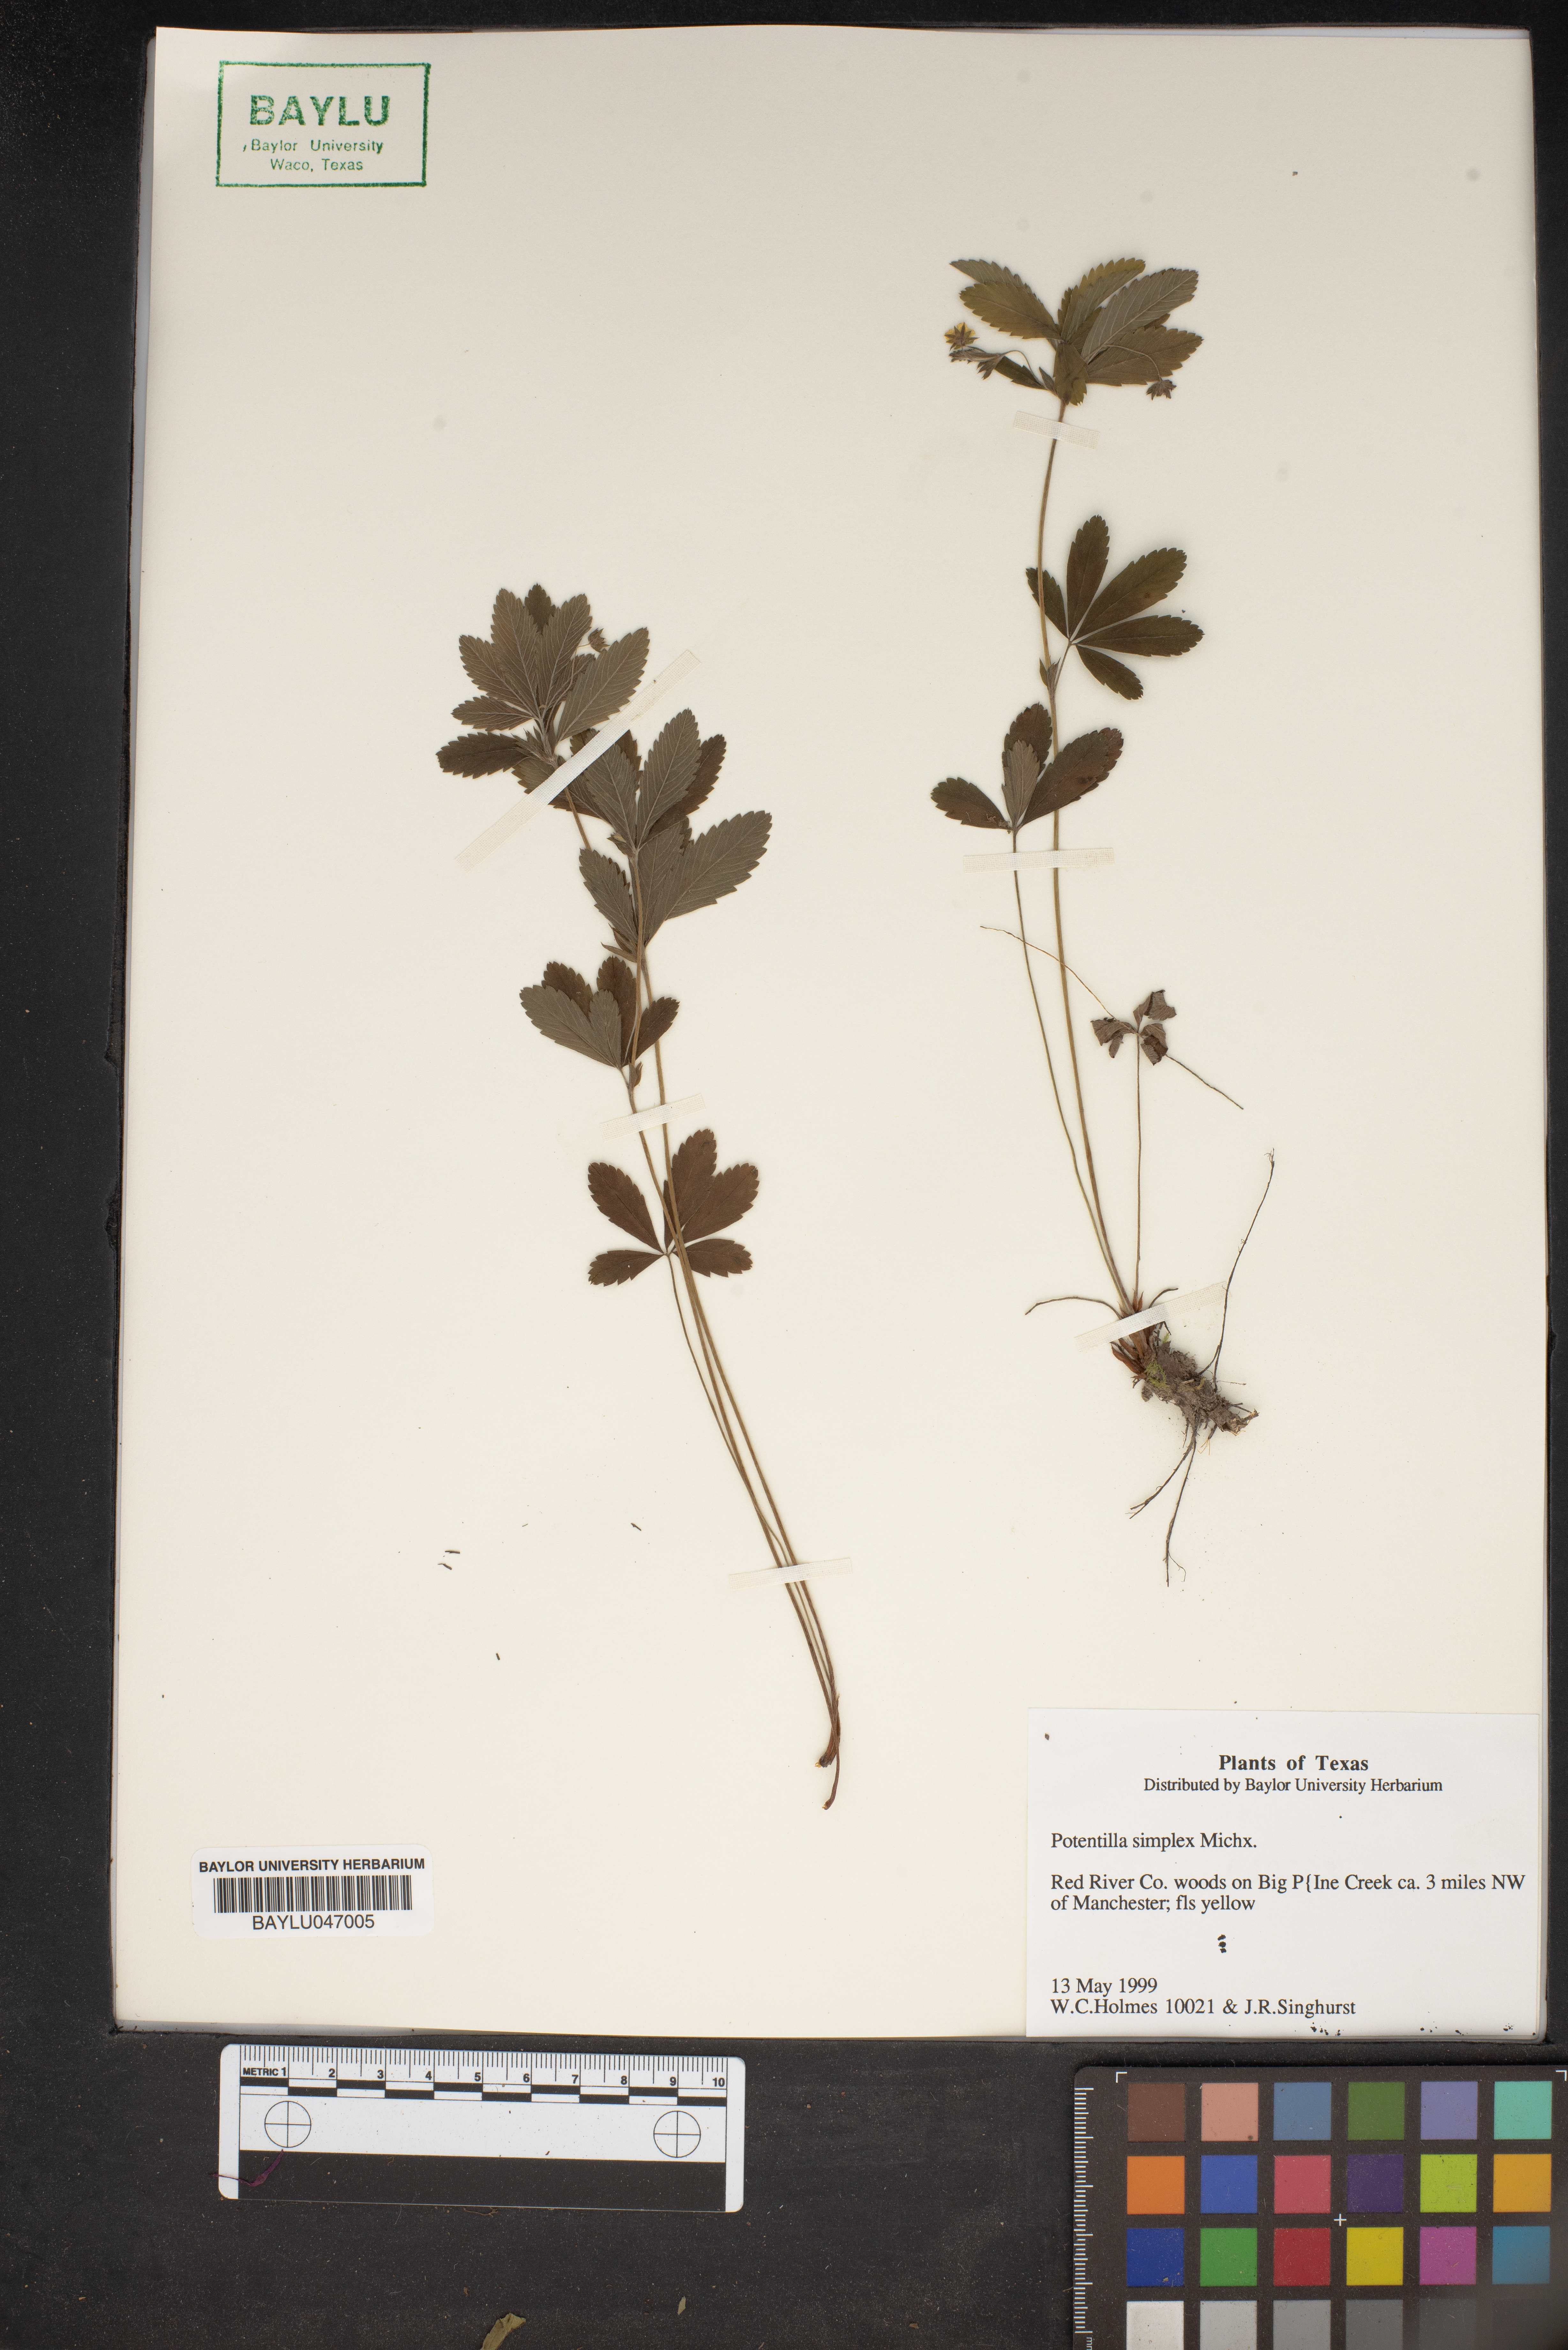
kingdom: Plantae
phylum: Tracheophyta
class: Magnoliopsida
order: Rosales
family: Rosaceae
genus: Potentilla
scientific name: Potentilla simplex
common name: Old field cinquefoil
